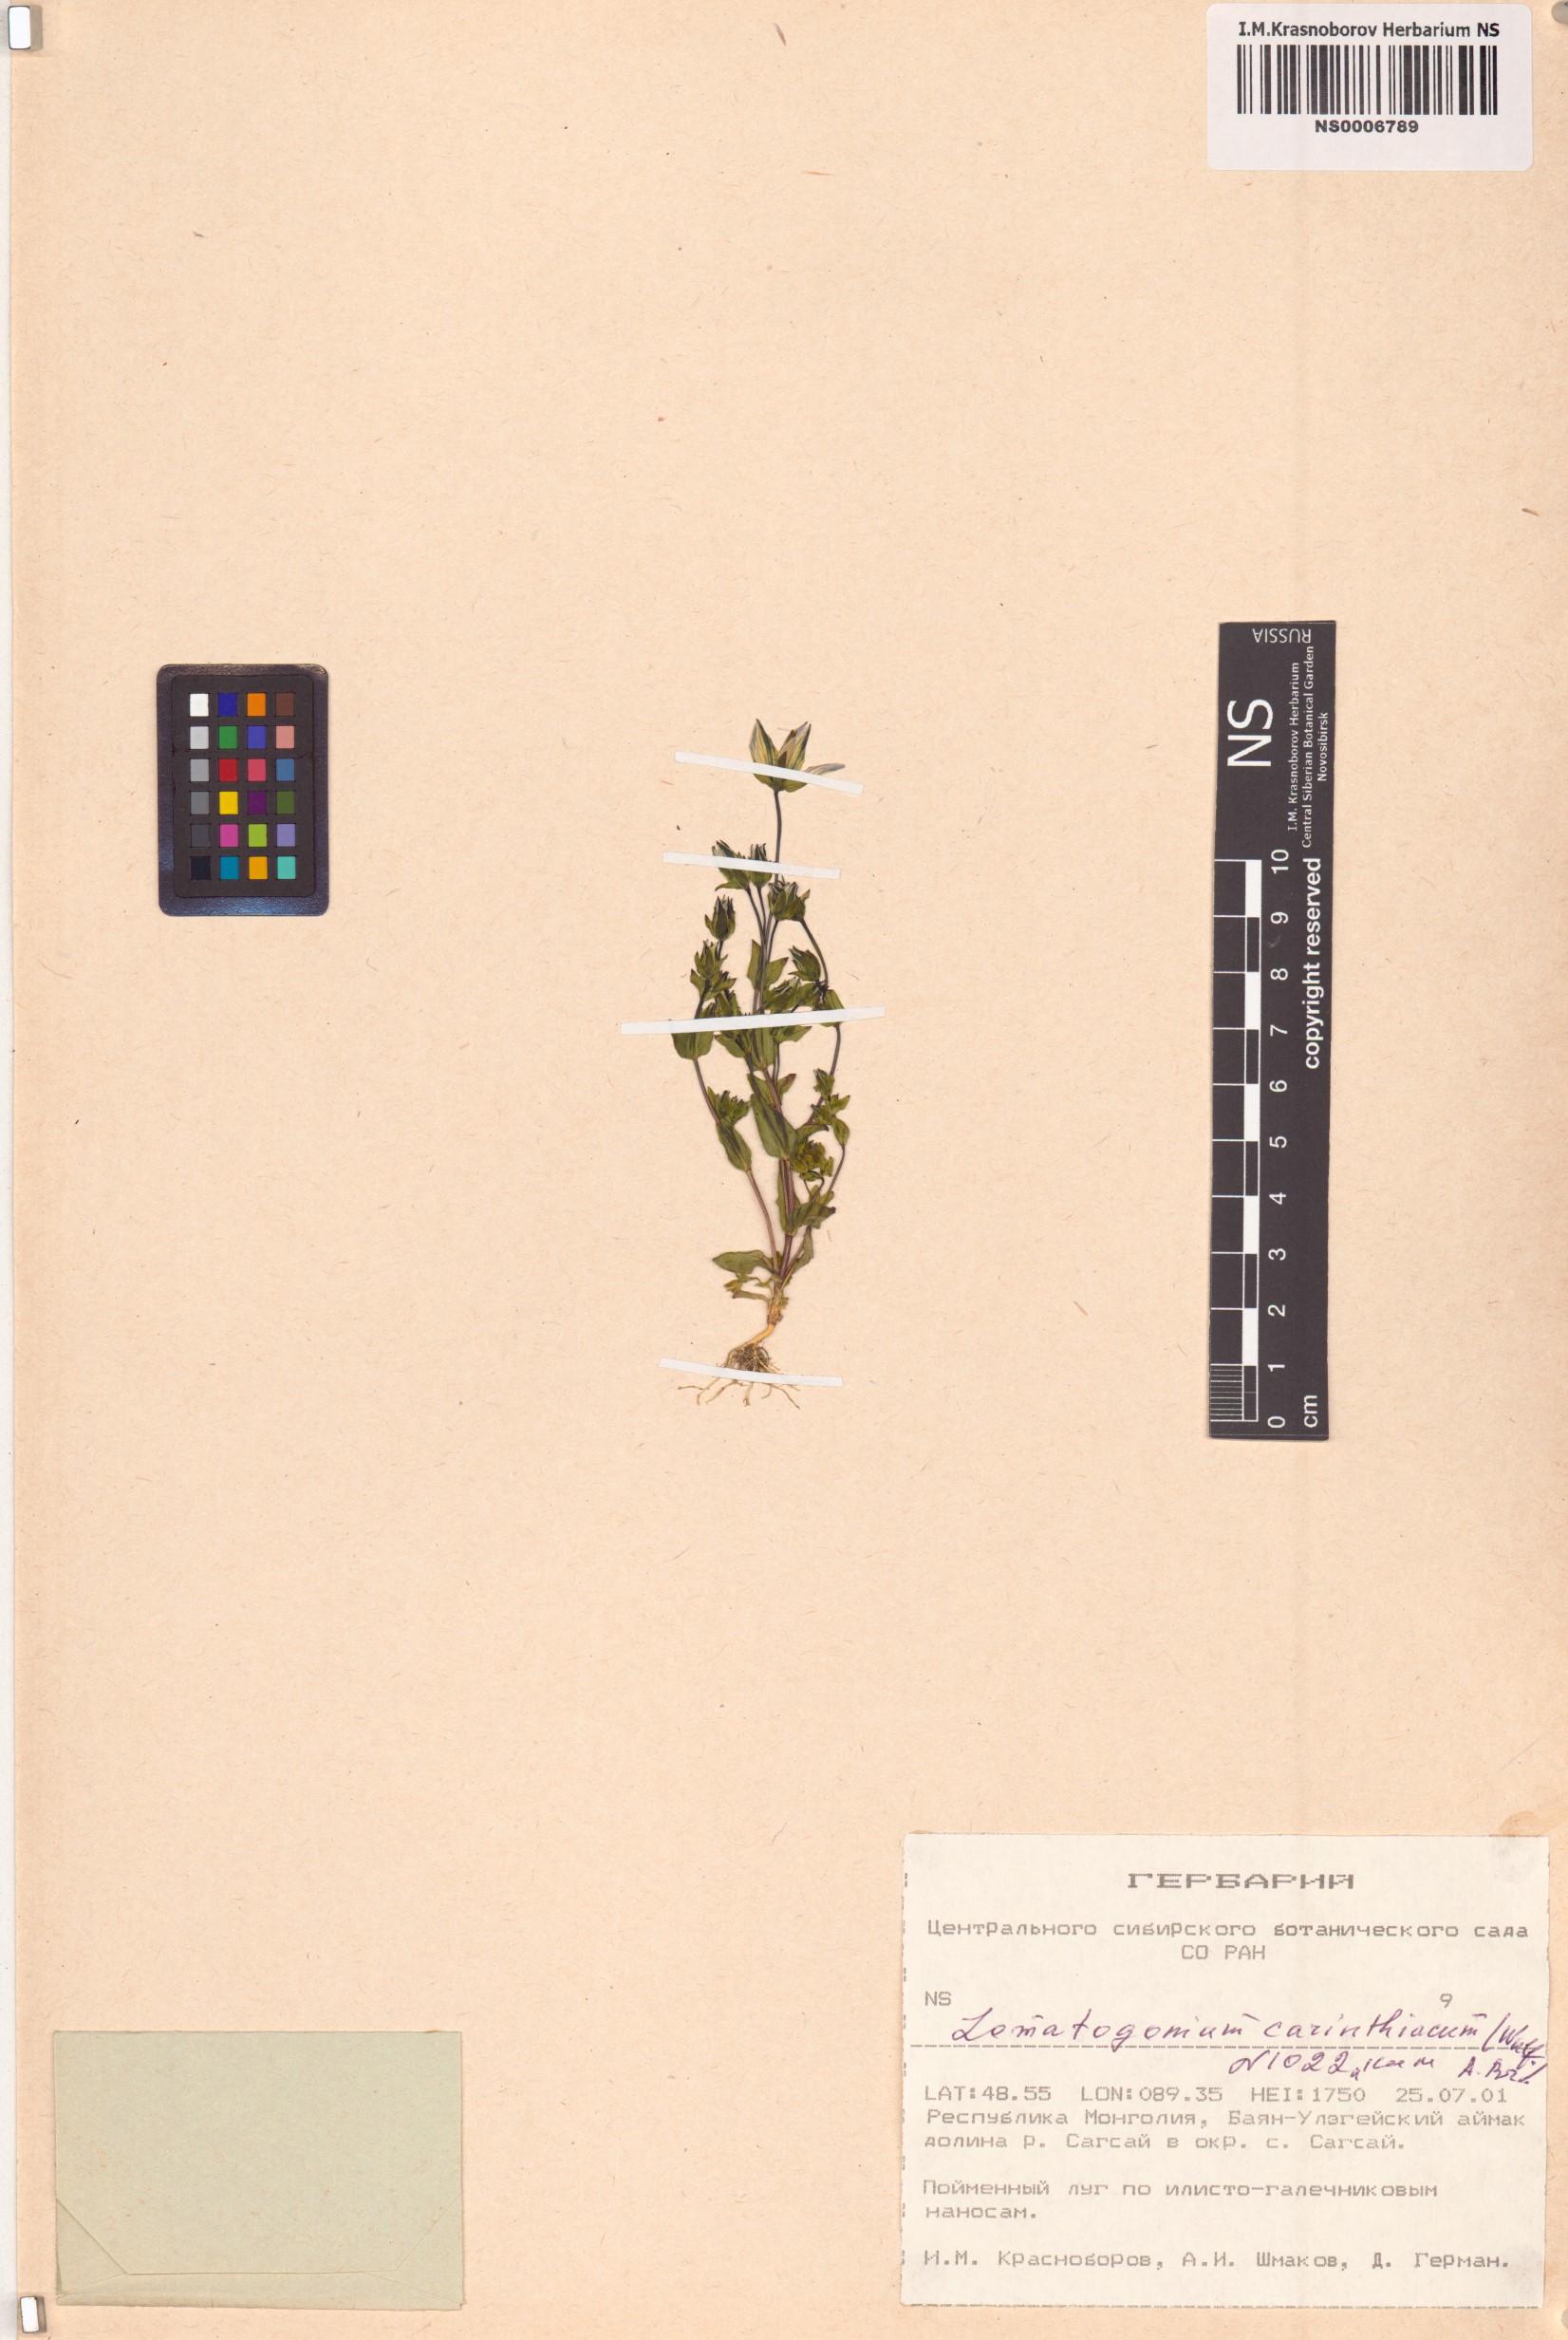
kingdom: Plantae
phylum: Tracheophyta
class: Magnoliopsida
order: Gentianales
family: Gentianaceae
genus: Lomatogonium
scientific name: Lomatogonium carinthiacum
